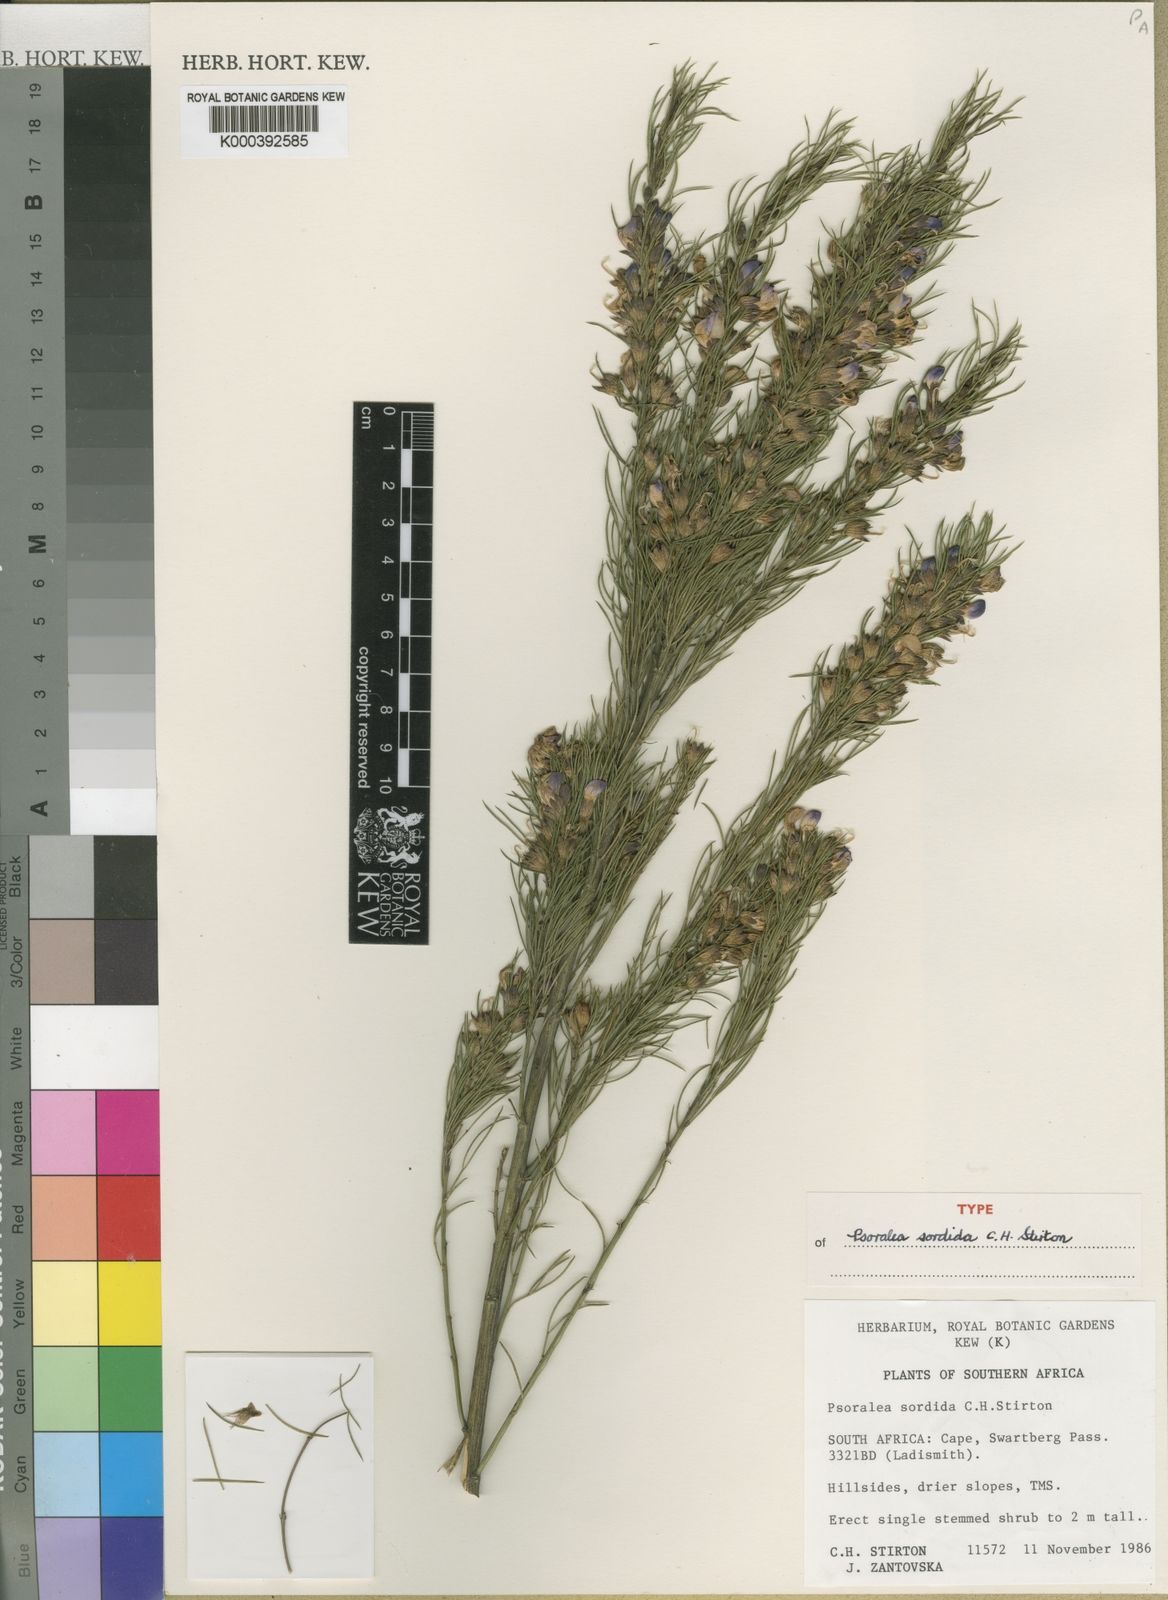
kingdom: Plantae
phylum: Tracheophyta
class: Magnoliopsida
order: Fabales
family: Fabaceae
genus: Psoralea
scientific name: Psoralea
